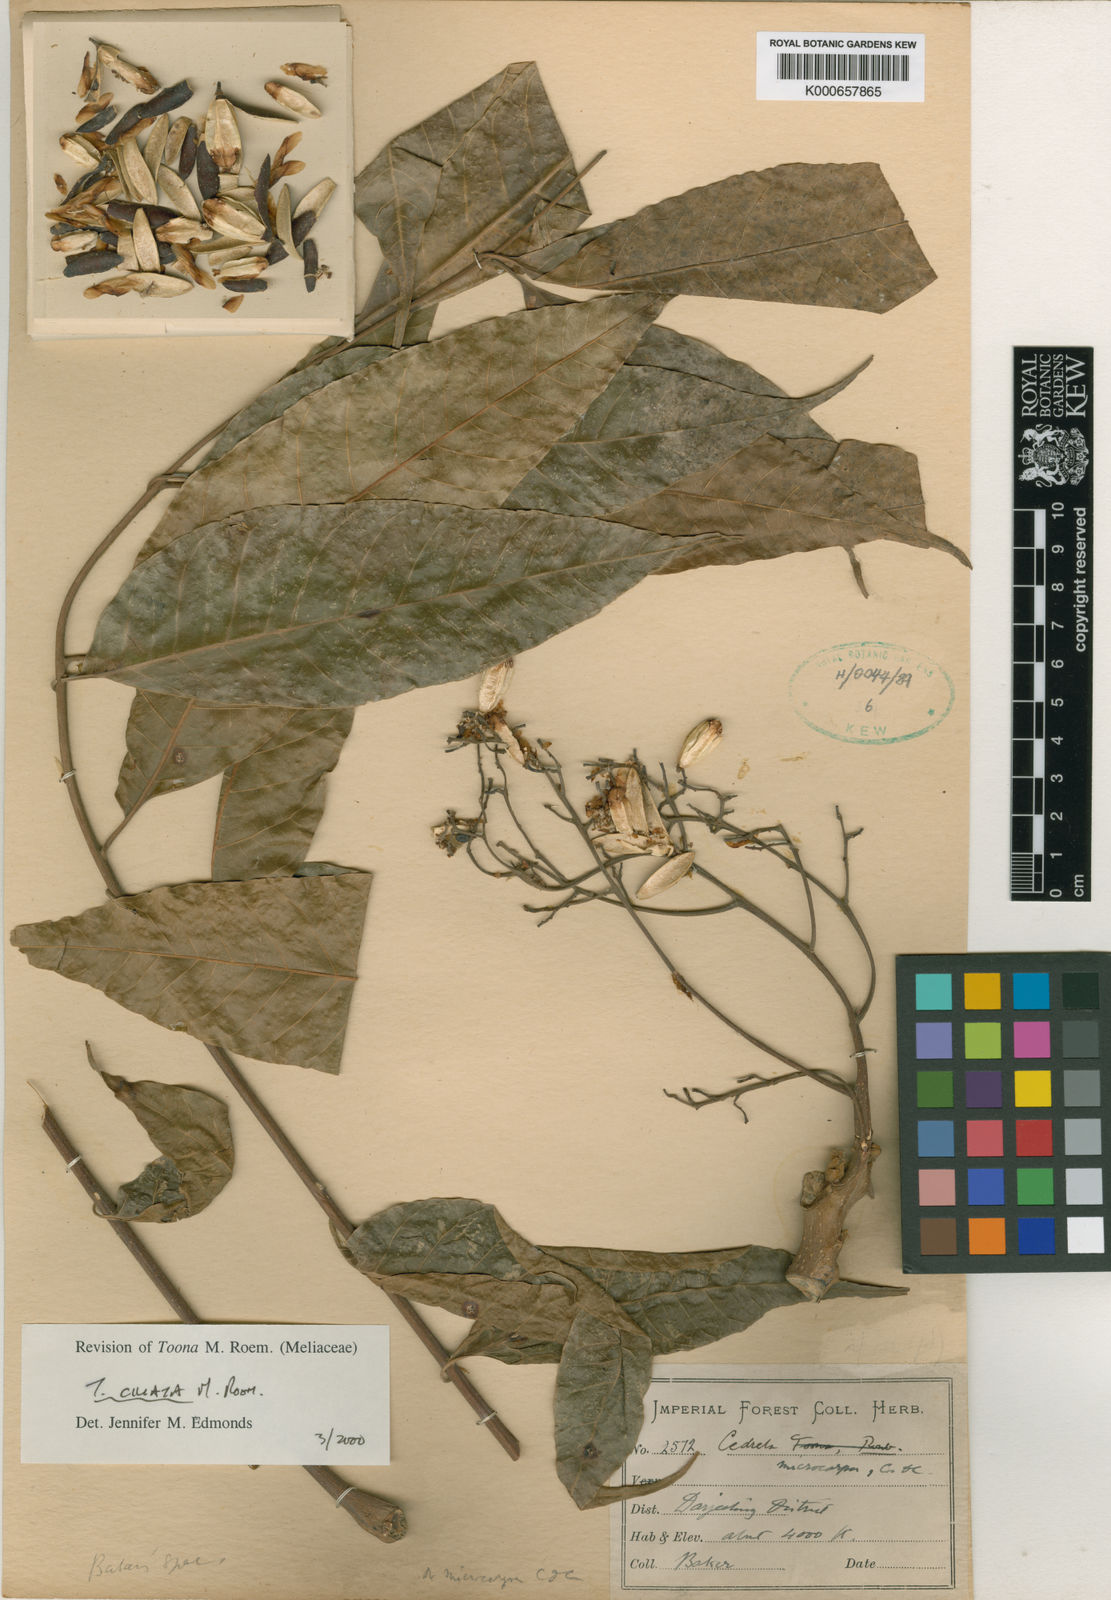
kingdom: Plantae
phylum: Tracheophyta
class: Magnoliopsida
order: Sapindales
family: Meliaceae
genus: Toona
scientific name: Toona ciliata
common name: Australian redcedar
